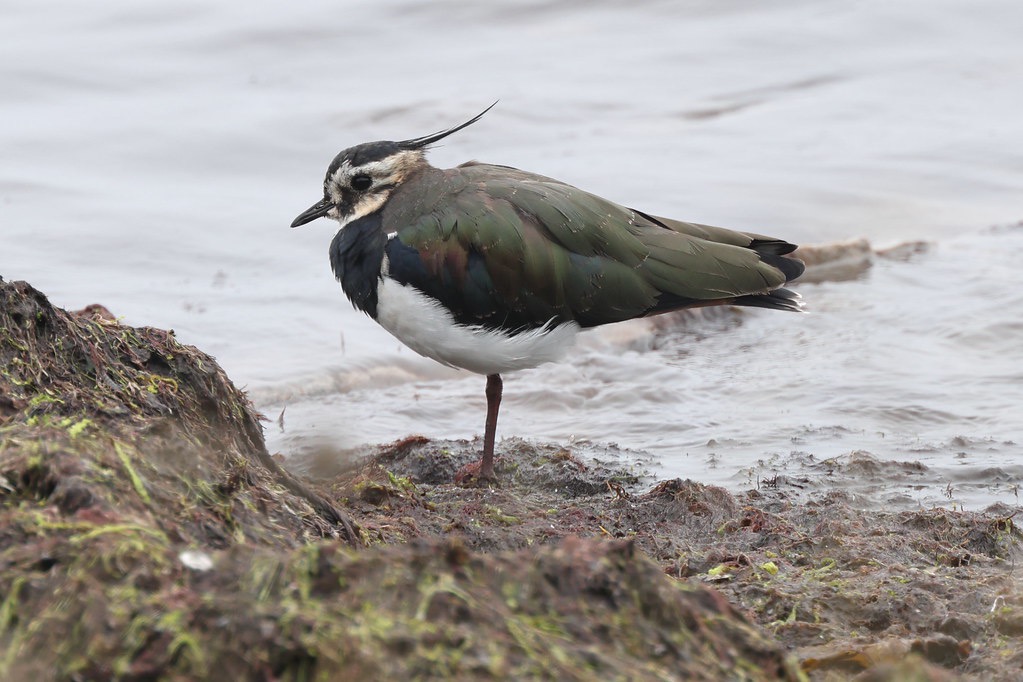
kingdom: Animalia
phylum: Chordata
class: Aves
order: Charadriiformes
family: Charadriidae
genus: Vanellus
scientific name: Vanellus vanellus
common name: Vibe
